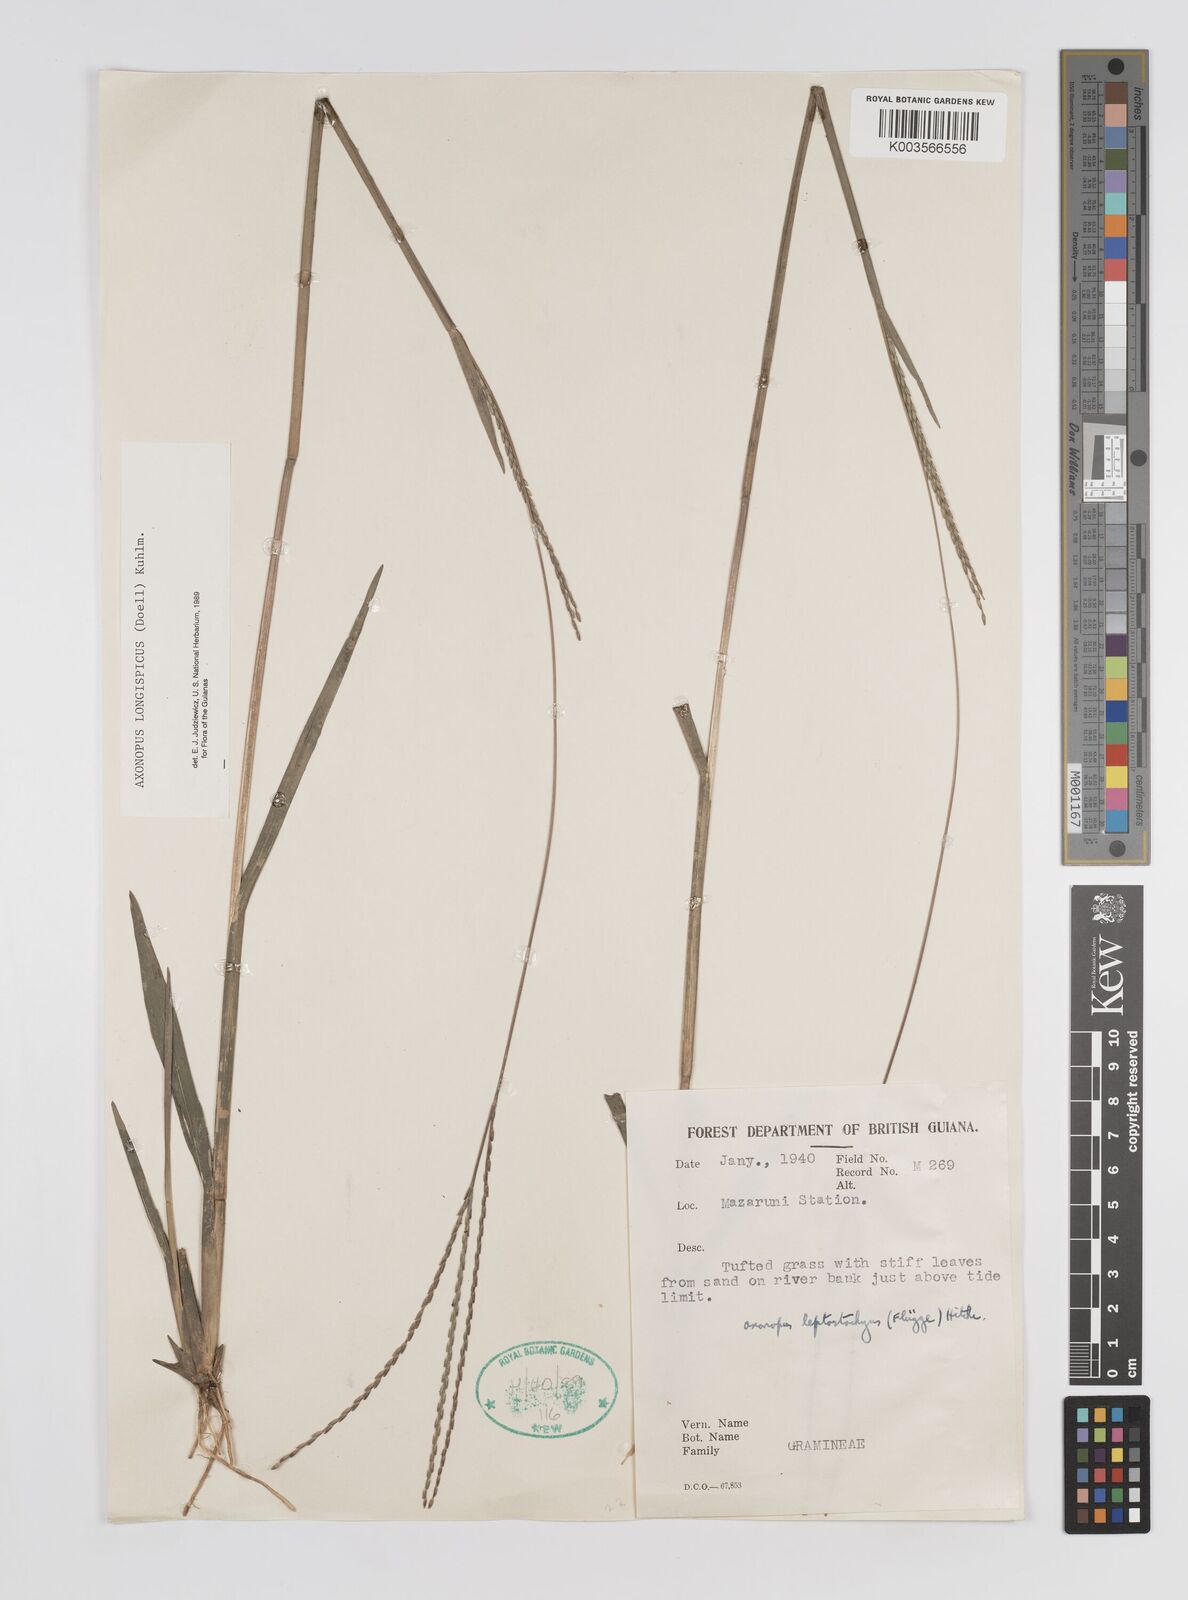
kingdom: Plantae
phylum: Tracheophyta
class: Liliopsida
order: Poales
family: Poaceae
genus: Axonopus
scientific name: Axonopus longispicus
